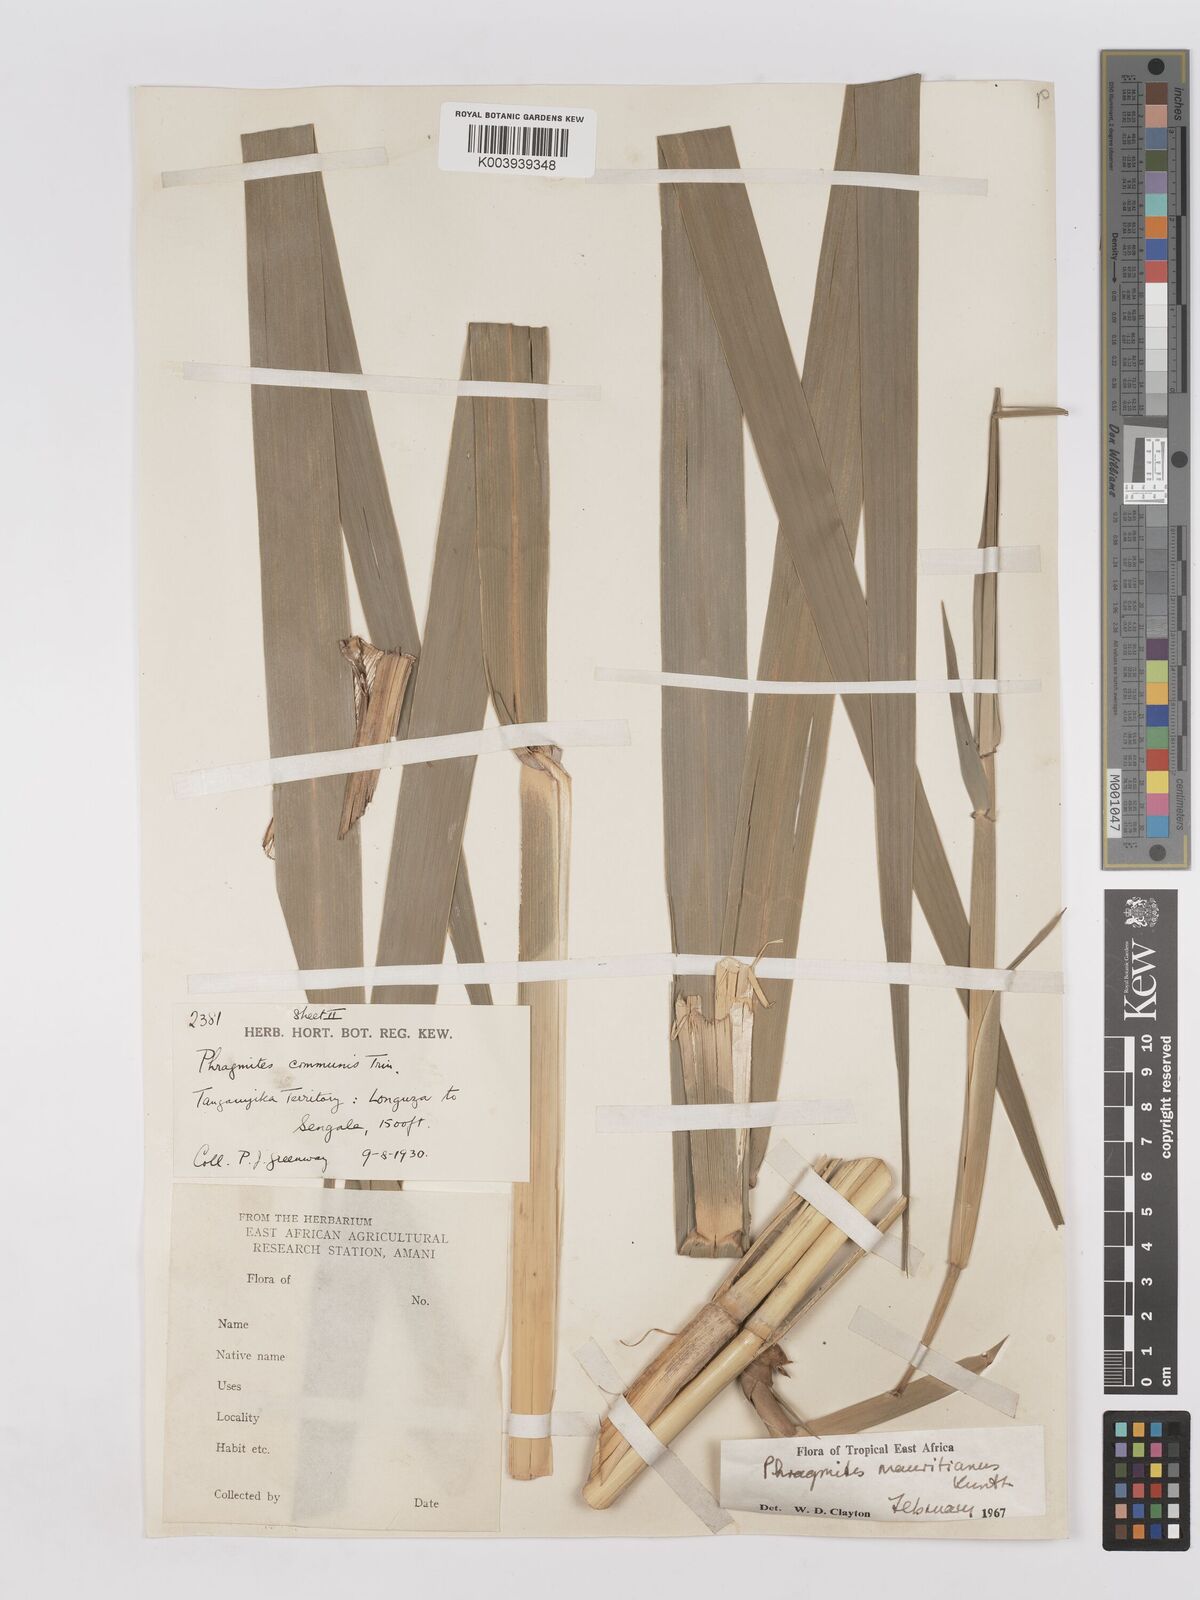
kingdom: Plantae
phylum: Tracheophyta
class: Liliopsida
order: Poales
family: Poaceae
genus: Phragmites
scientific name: Phragmites mauritianus
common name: Reed grass
